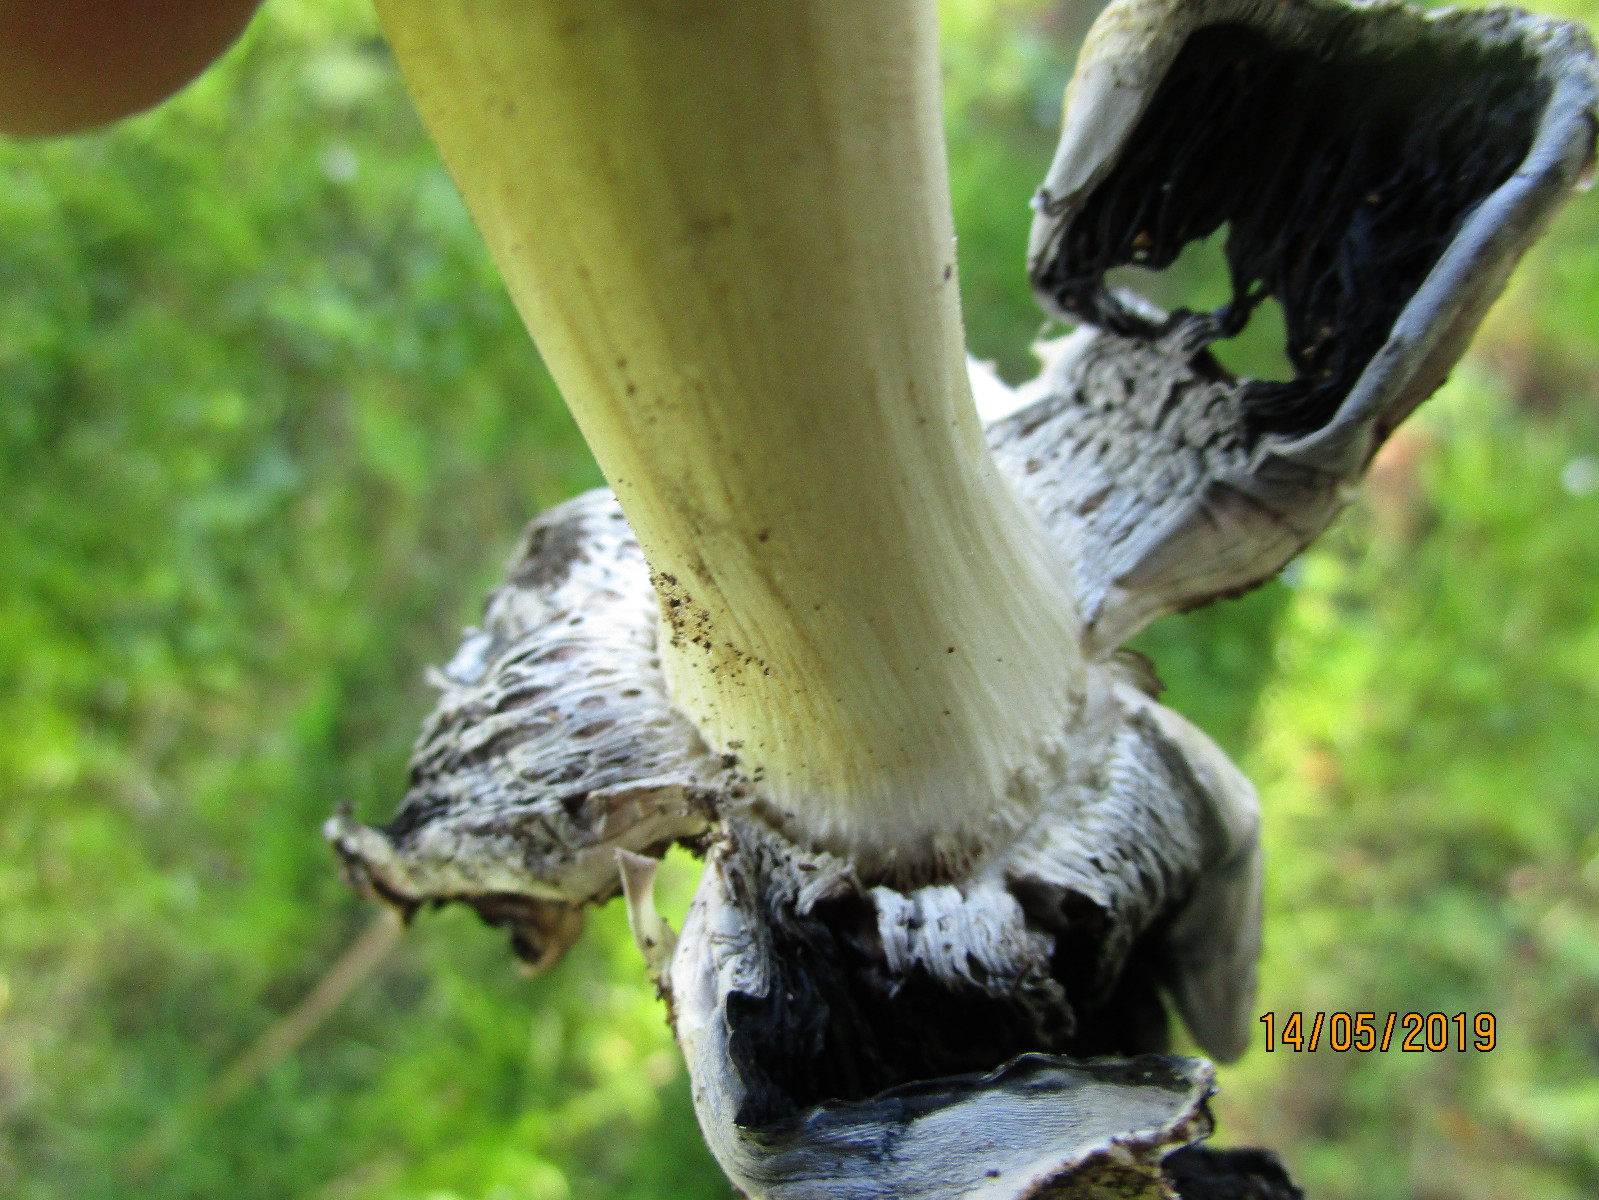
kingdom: Fungi
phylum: Basidiomycota
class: Agaricomycetes
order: Agaricales
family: Psathyrellaceae
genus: Coprinopsis
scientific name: Coprinopsis romagnesiana
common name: brunskællet blækhat
